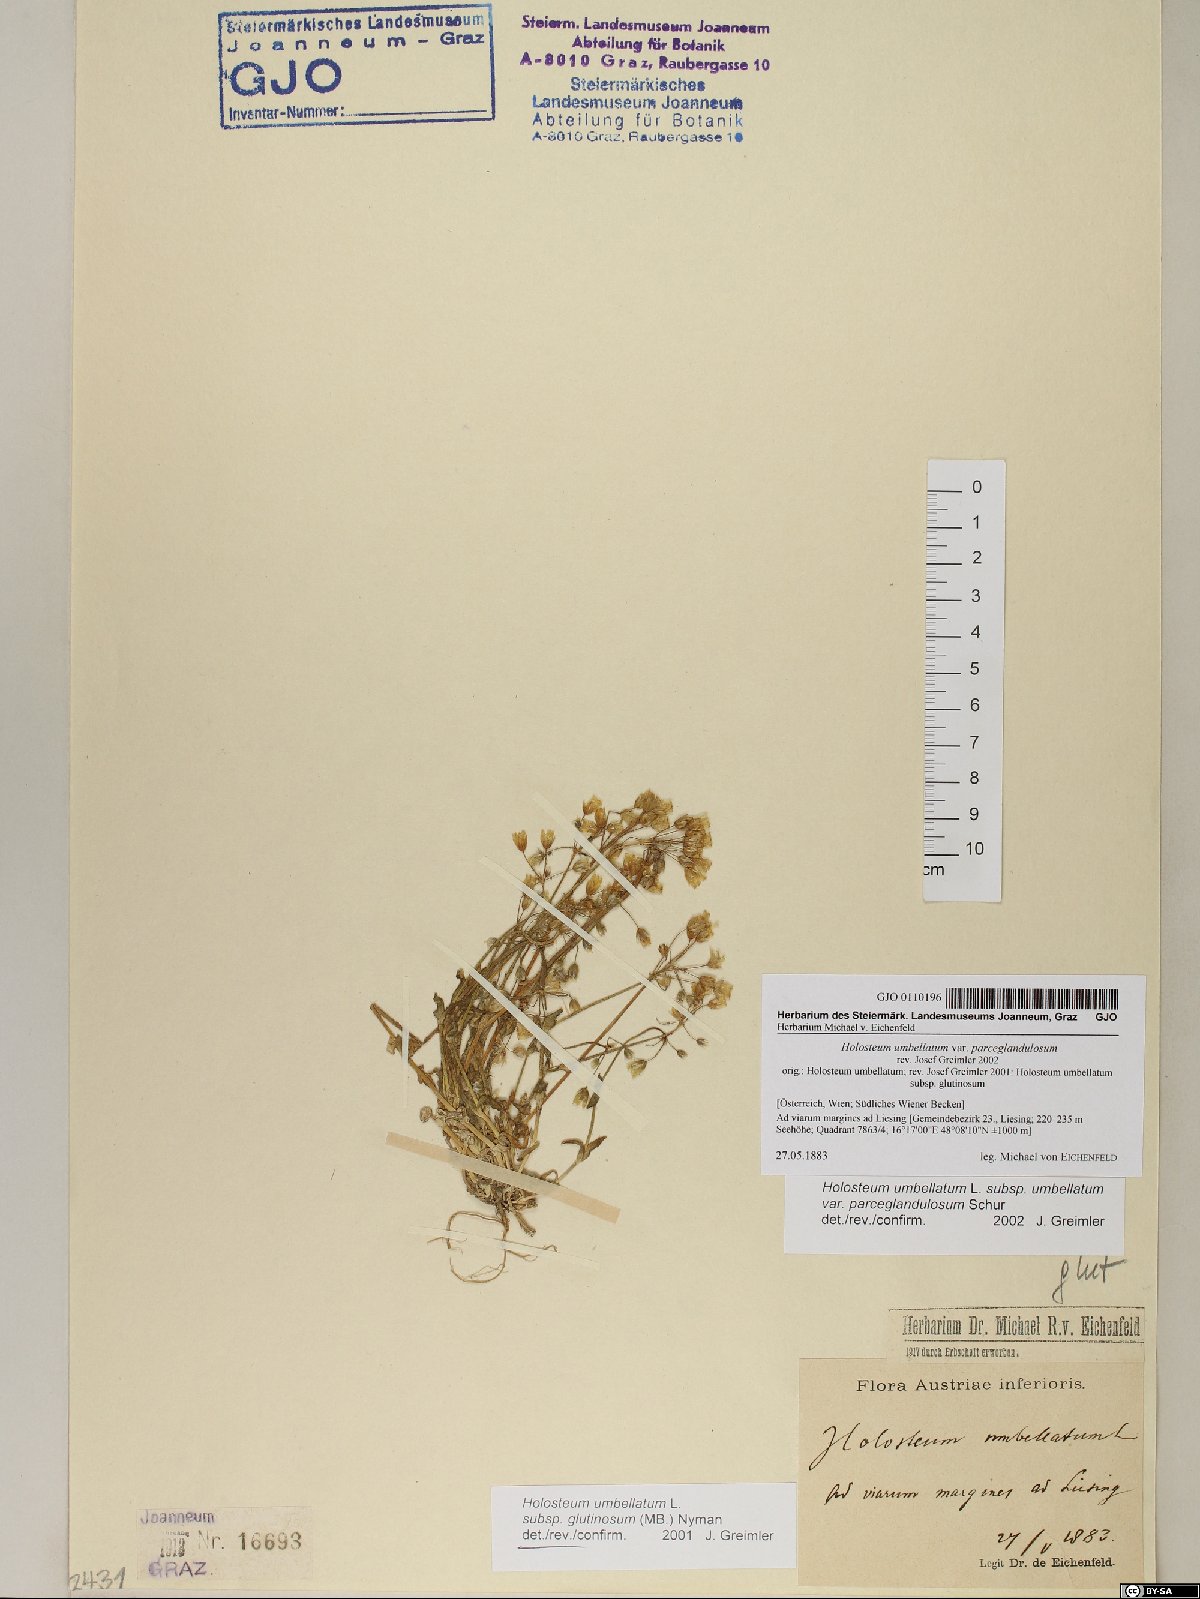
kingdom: Plantae
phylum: Tracheophyta
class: Magnoliopsida
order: Caryophyllales
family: Caryophyllaceae
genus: Holosteum
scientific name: Holosteum umbellatum
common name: Jagged chickweed
